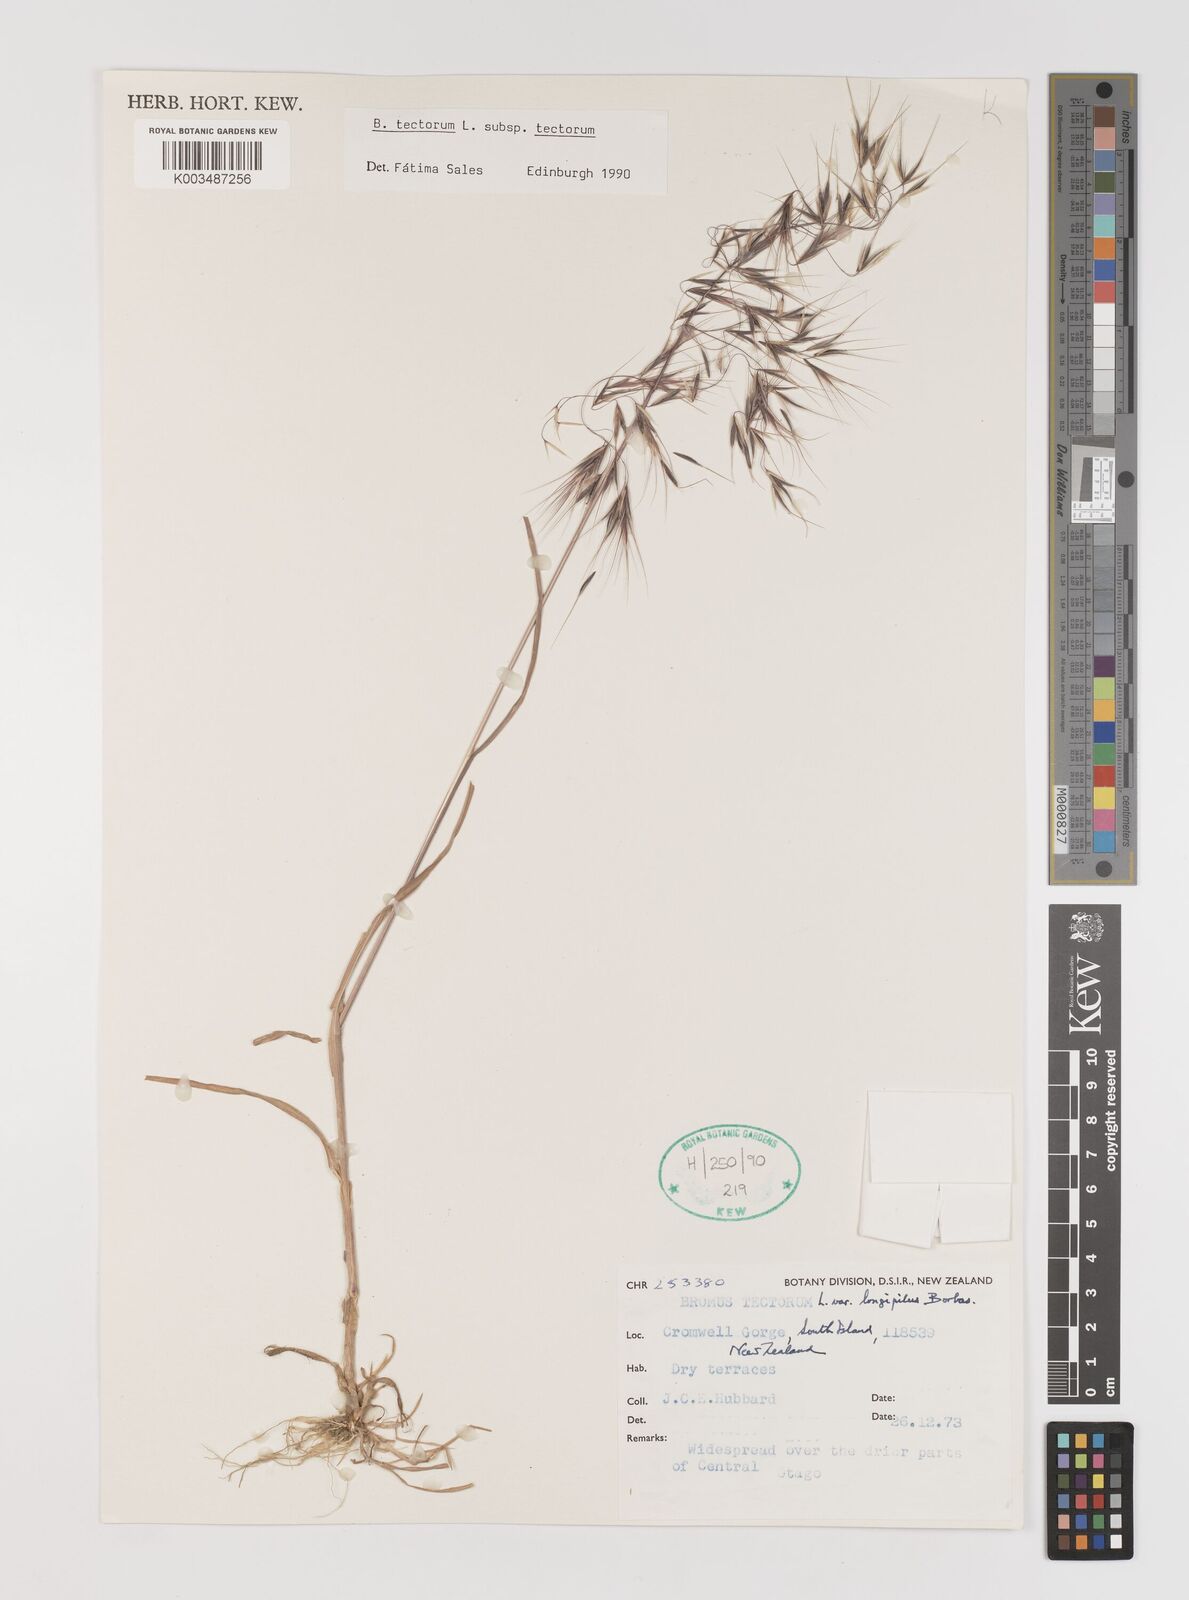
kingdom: Plantae
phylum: Tracheophyta
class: Liliopsida
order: Poales
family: Poaceae
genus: Bromus
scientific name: Bromus tectorum
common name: Cheatgrass
